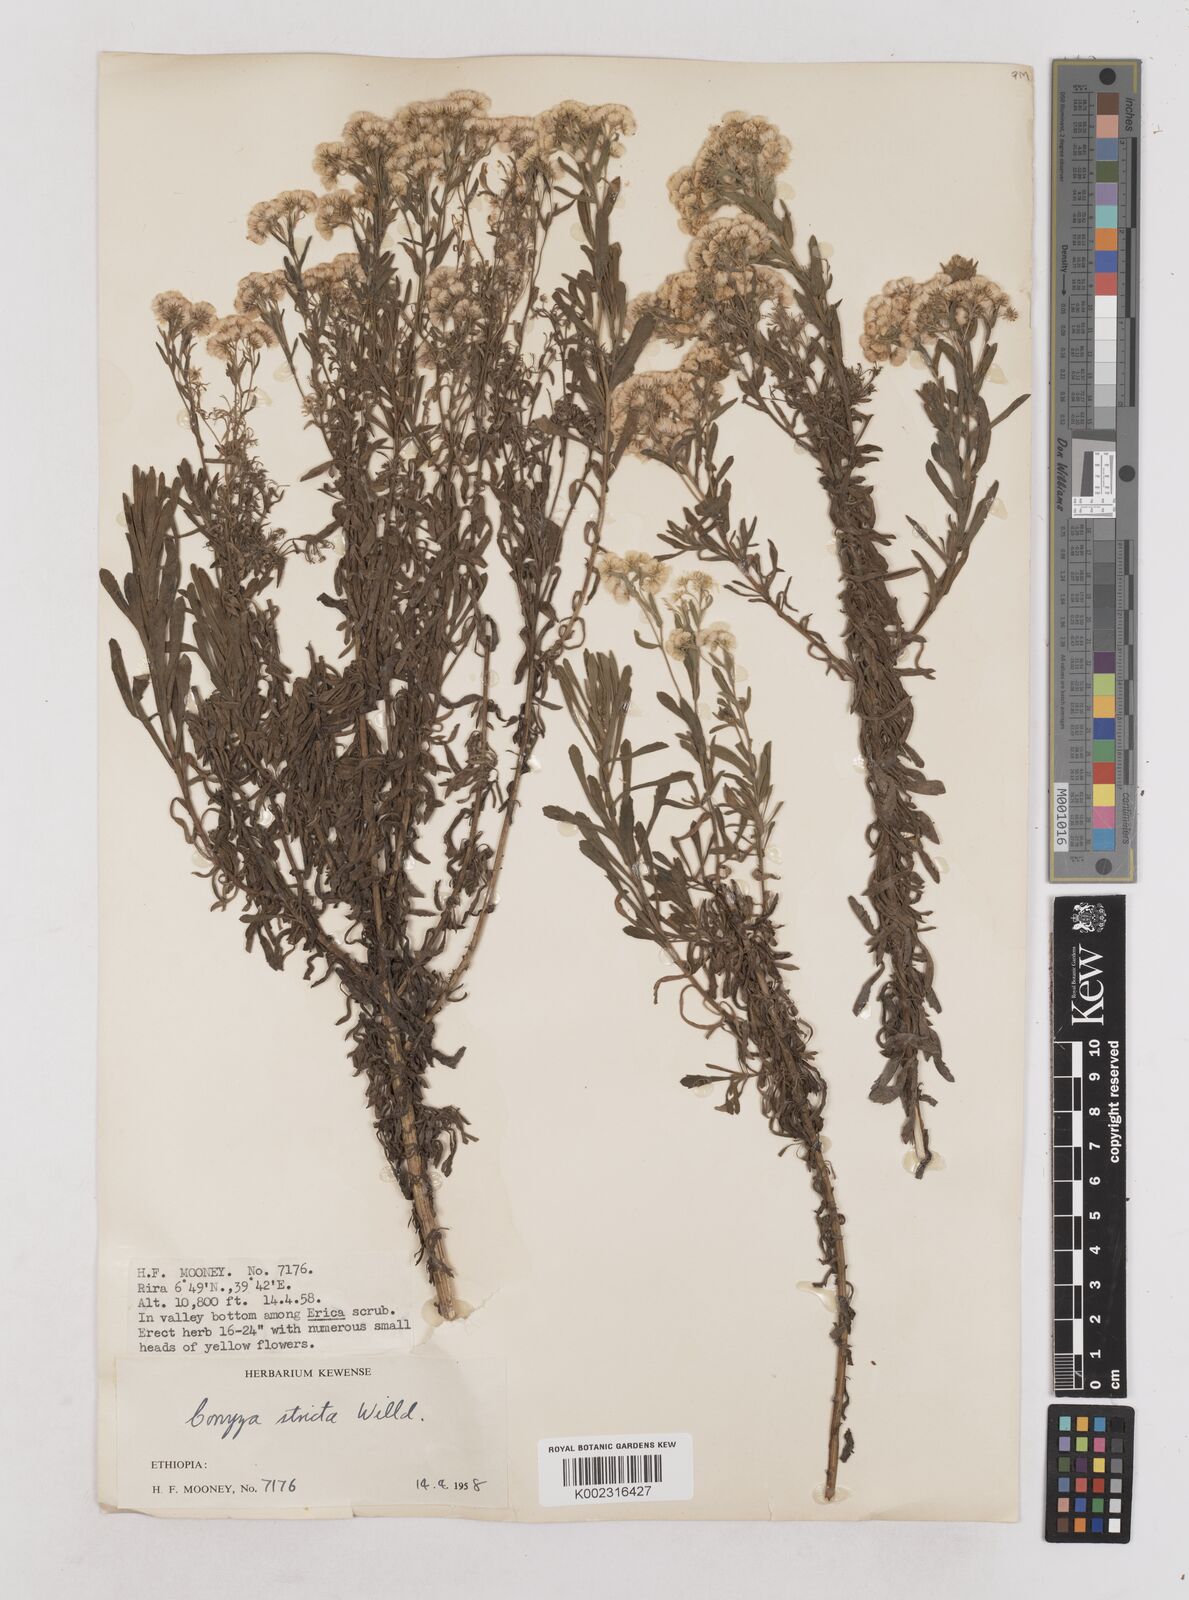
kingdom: Plantae
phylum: Tracheophyta
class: Magnoliopsida
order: Asterales
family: Asteraceae
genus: Nidorella
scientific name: Nidorella triloba
